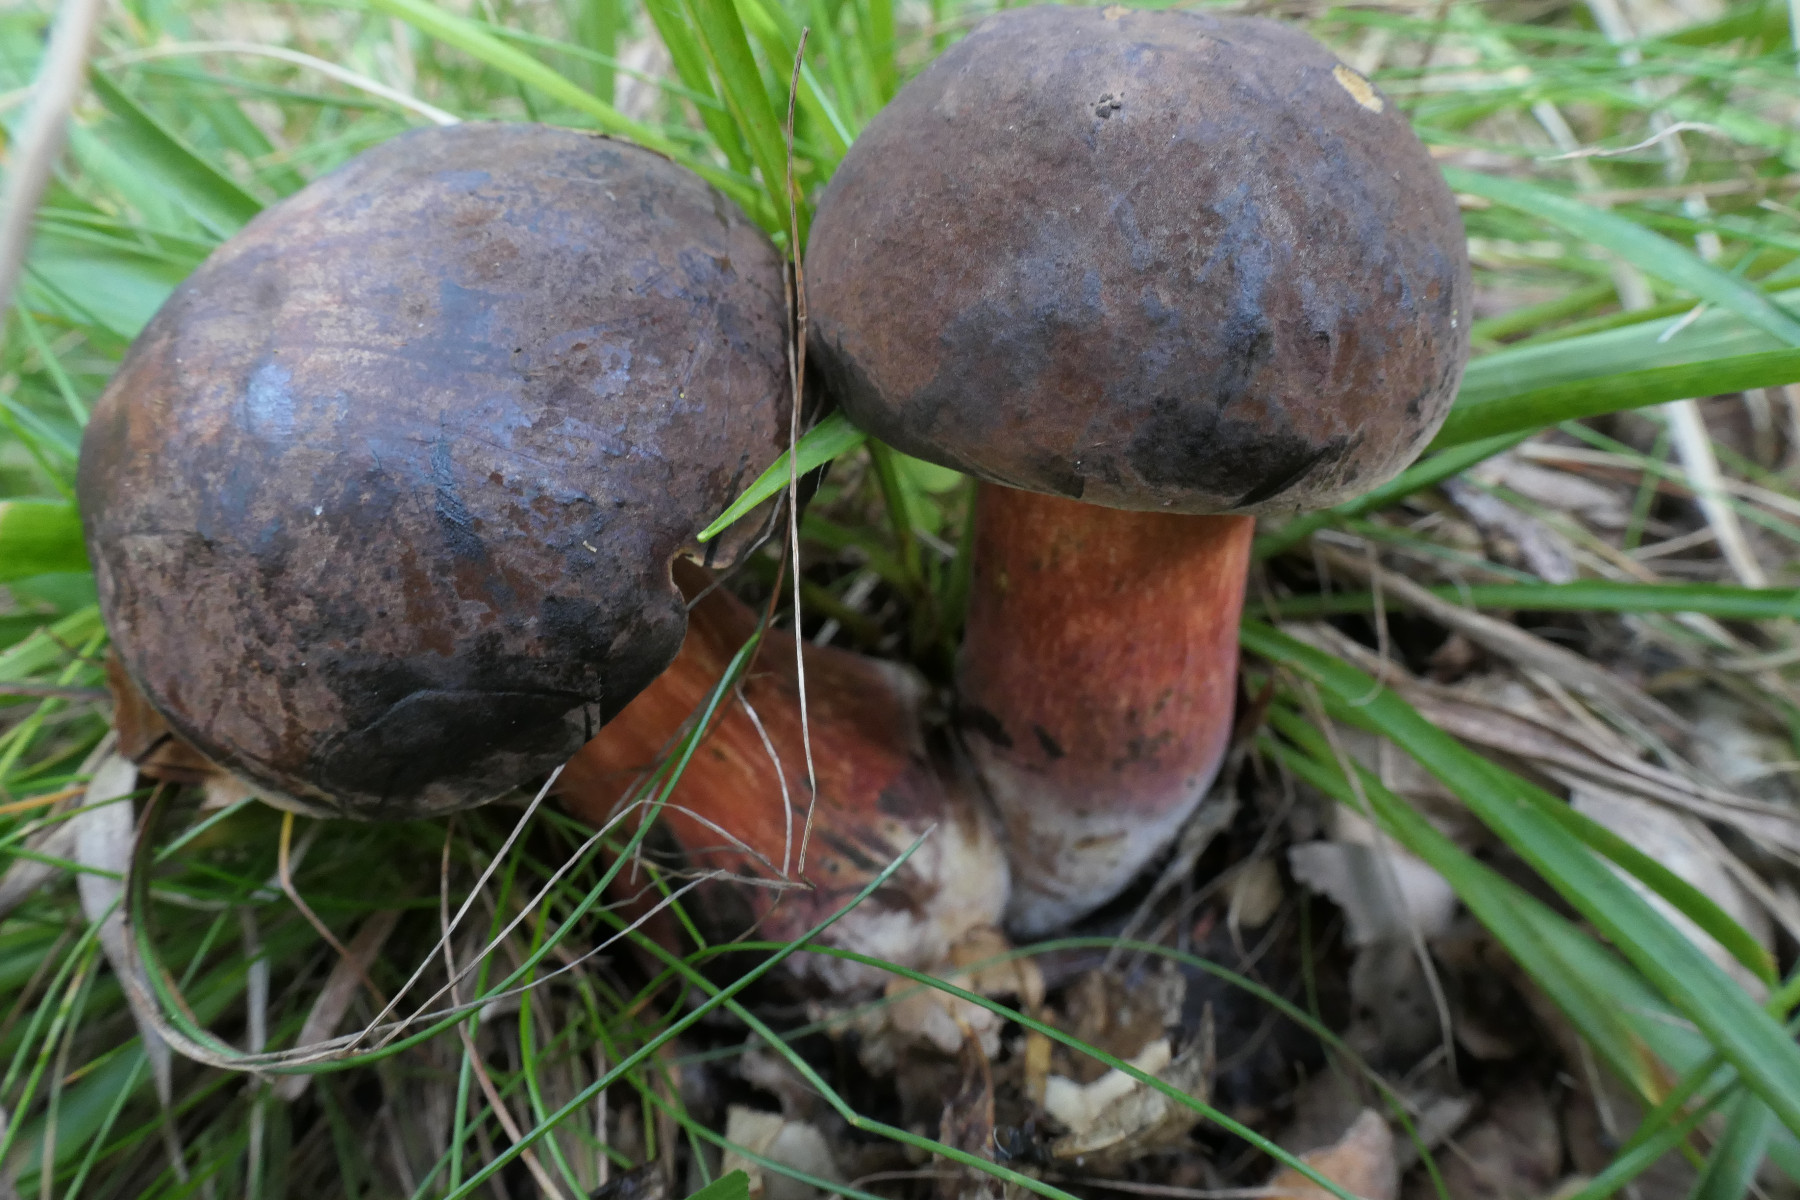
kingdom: Fungi
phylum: Basidiomycota
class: Agaricomycetes
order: Boletales
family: Boletaceae
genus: Neoboletus
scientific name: Neoboletus erythropus
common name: punktstokket indigorørhat
